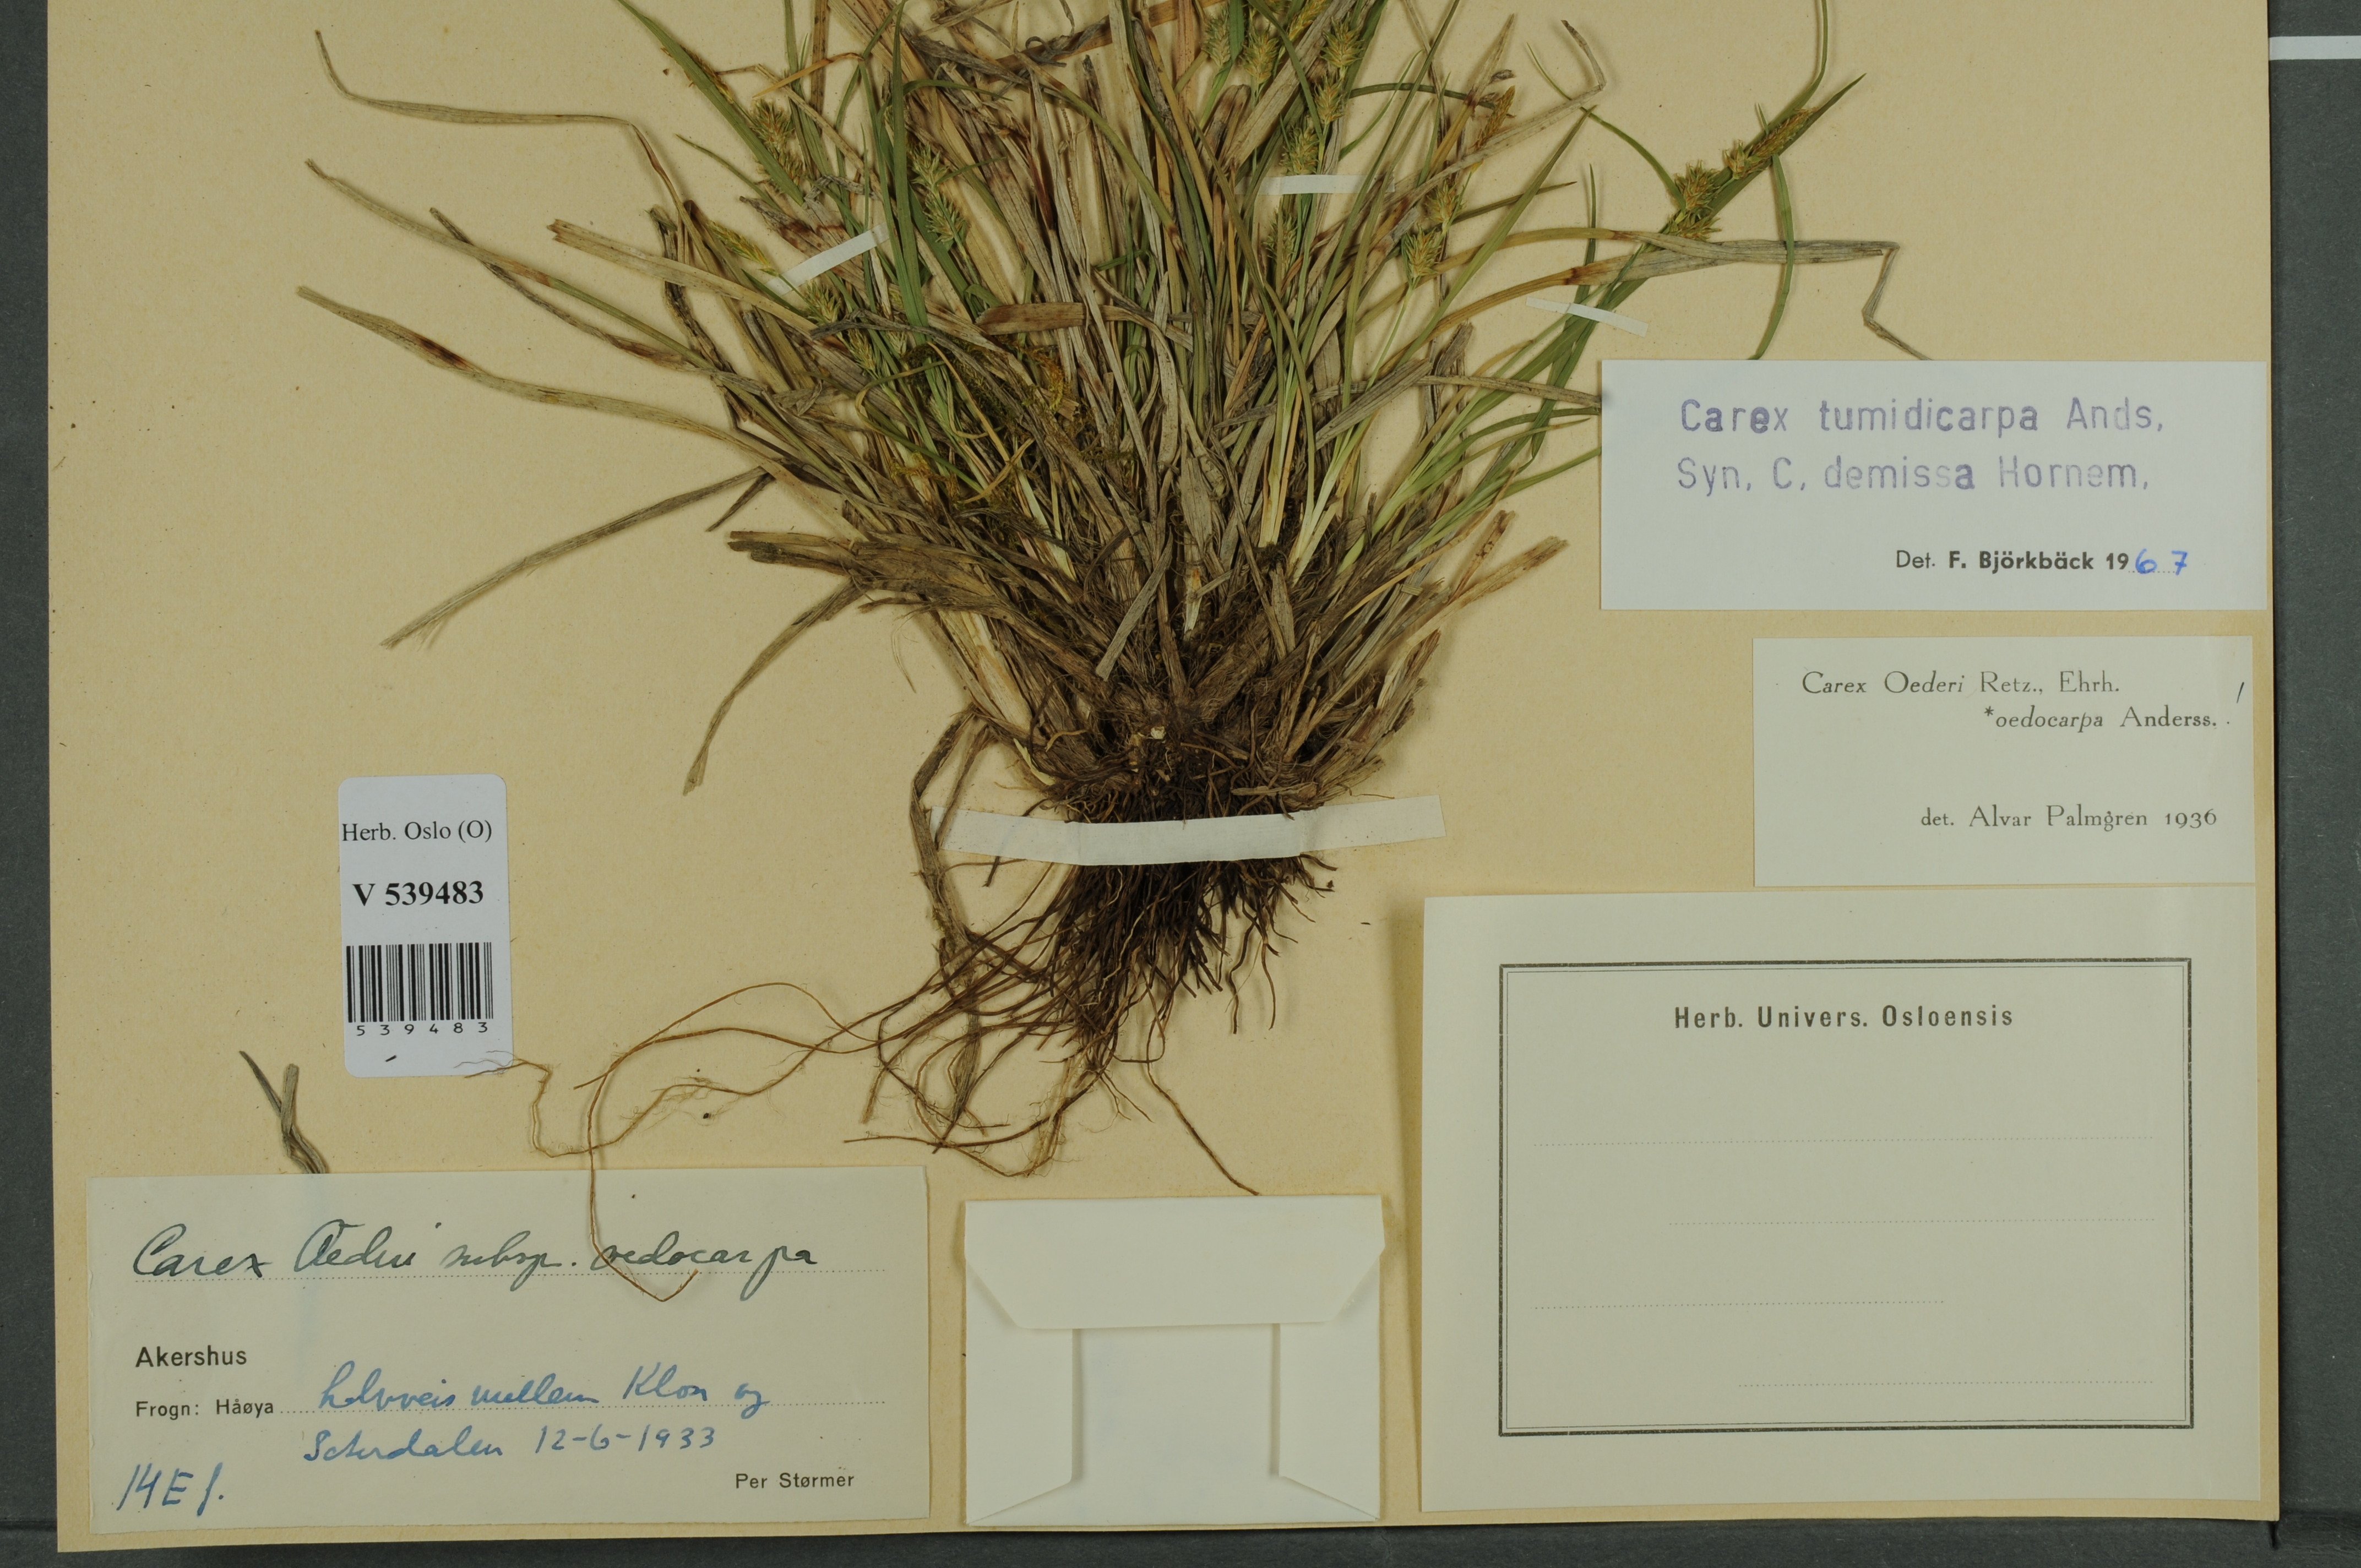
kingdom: Plantae
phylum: Tracheophyta
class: Liliopsida
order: Poales
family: Cyperaceae
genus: Carex
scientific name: Carex demissa
